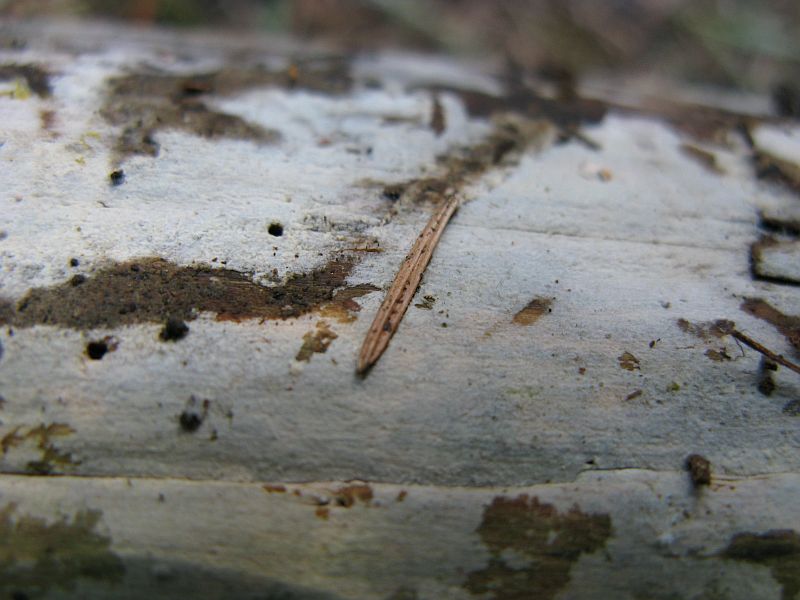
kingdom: Fungi
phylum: Basidiomycota
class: Agaricomycetes
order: Hymenochaetales
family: Rickenellaceae
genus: Peniophorella
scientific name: Peniophorella pubera
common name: dunet kalkskind
